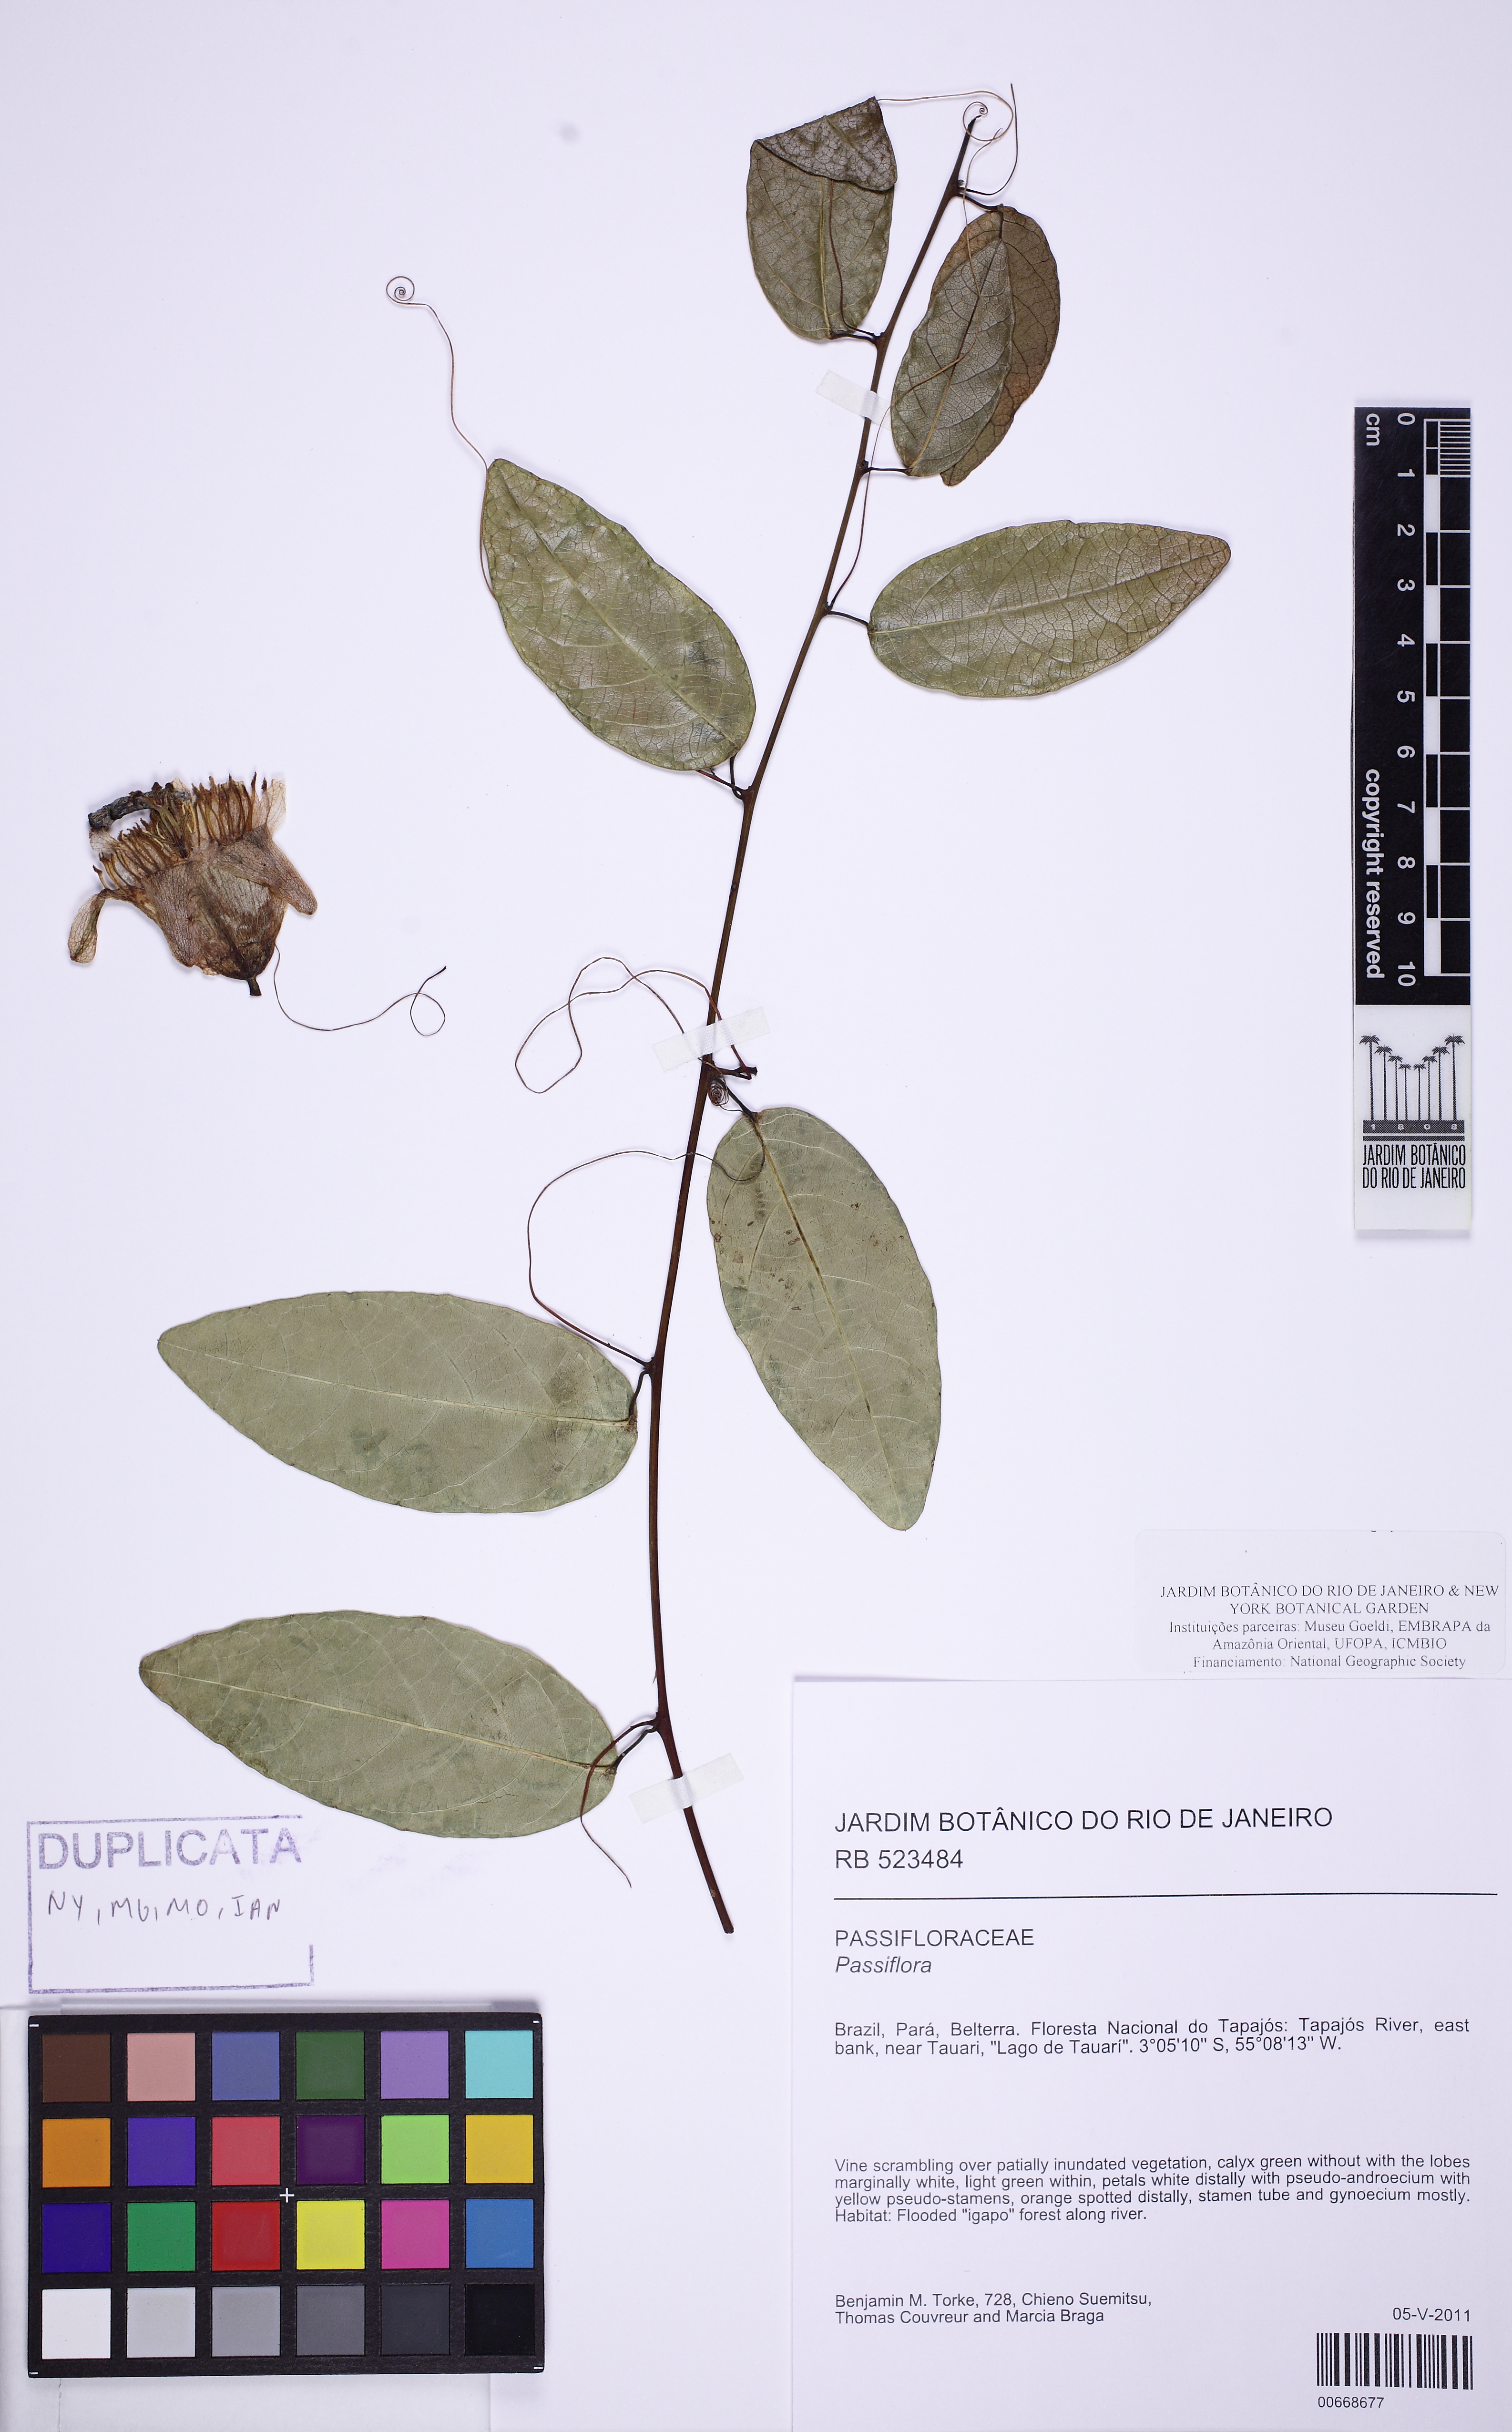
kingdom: Plantae
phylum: Tracheophyta
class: Magnoliopsida
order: Malpighiales
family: Passifloraceae
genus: Passiflora
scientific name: Passiflora hexagonocarpa
